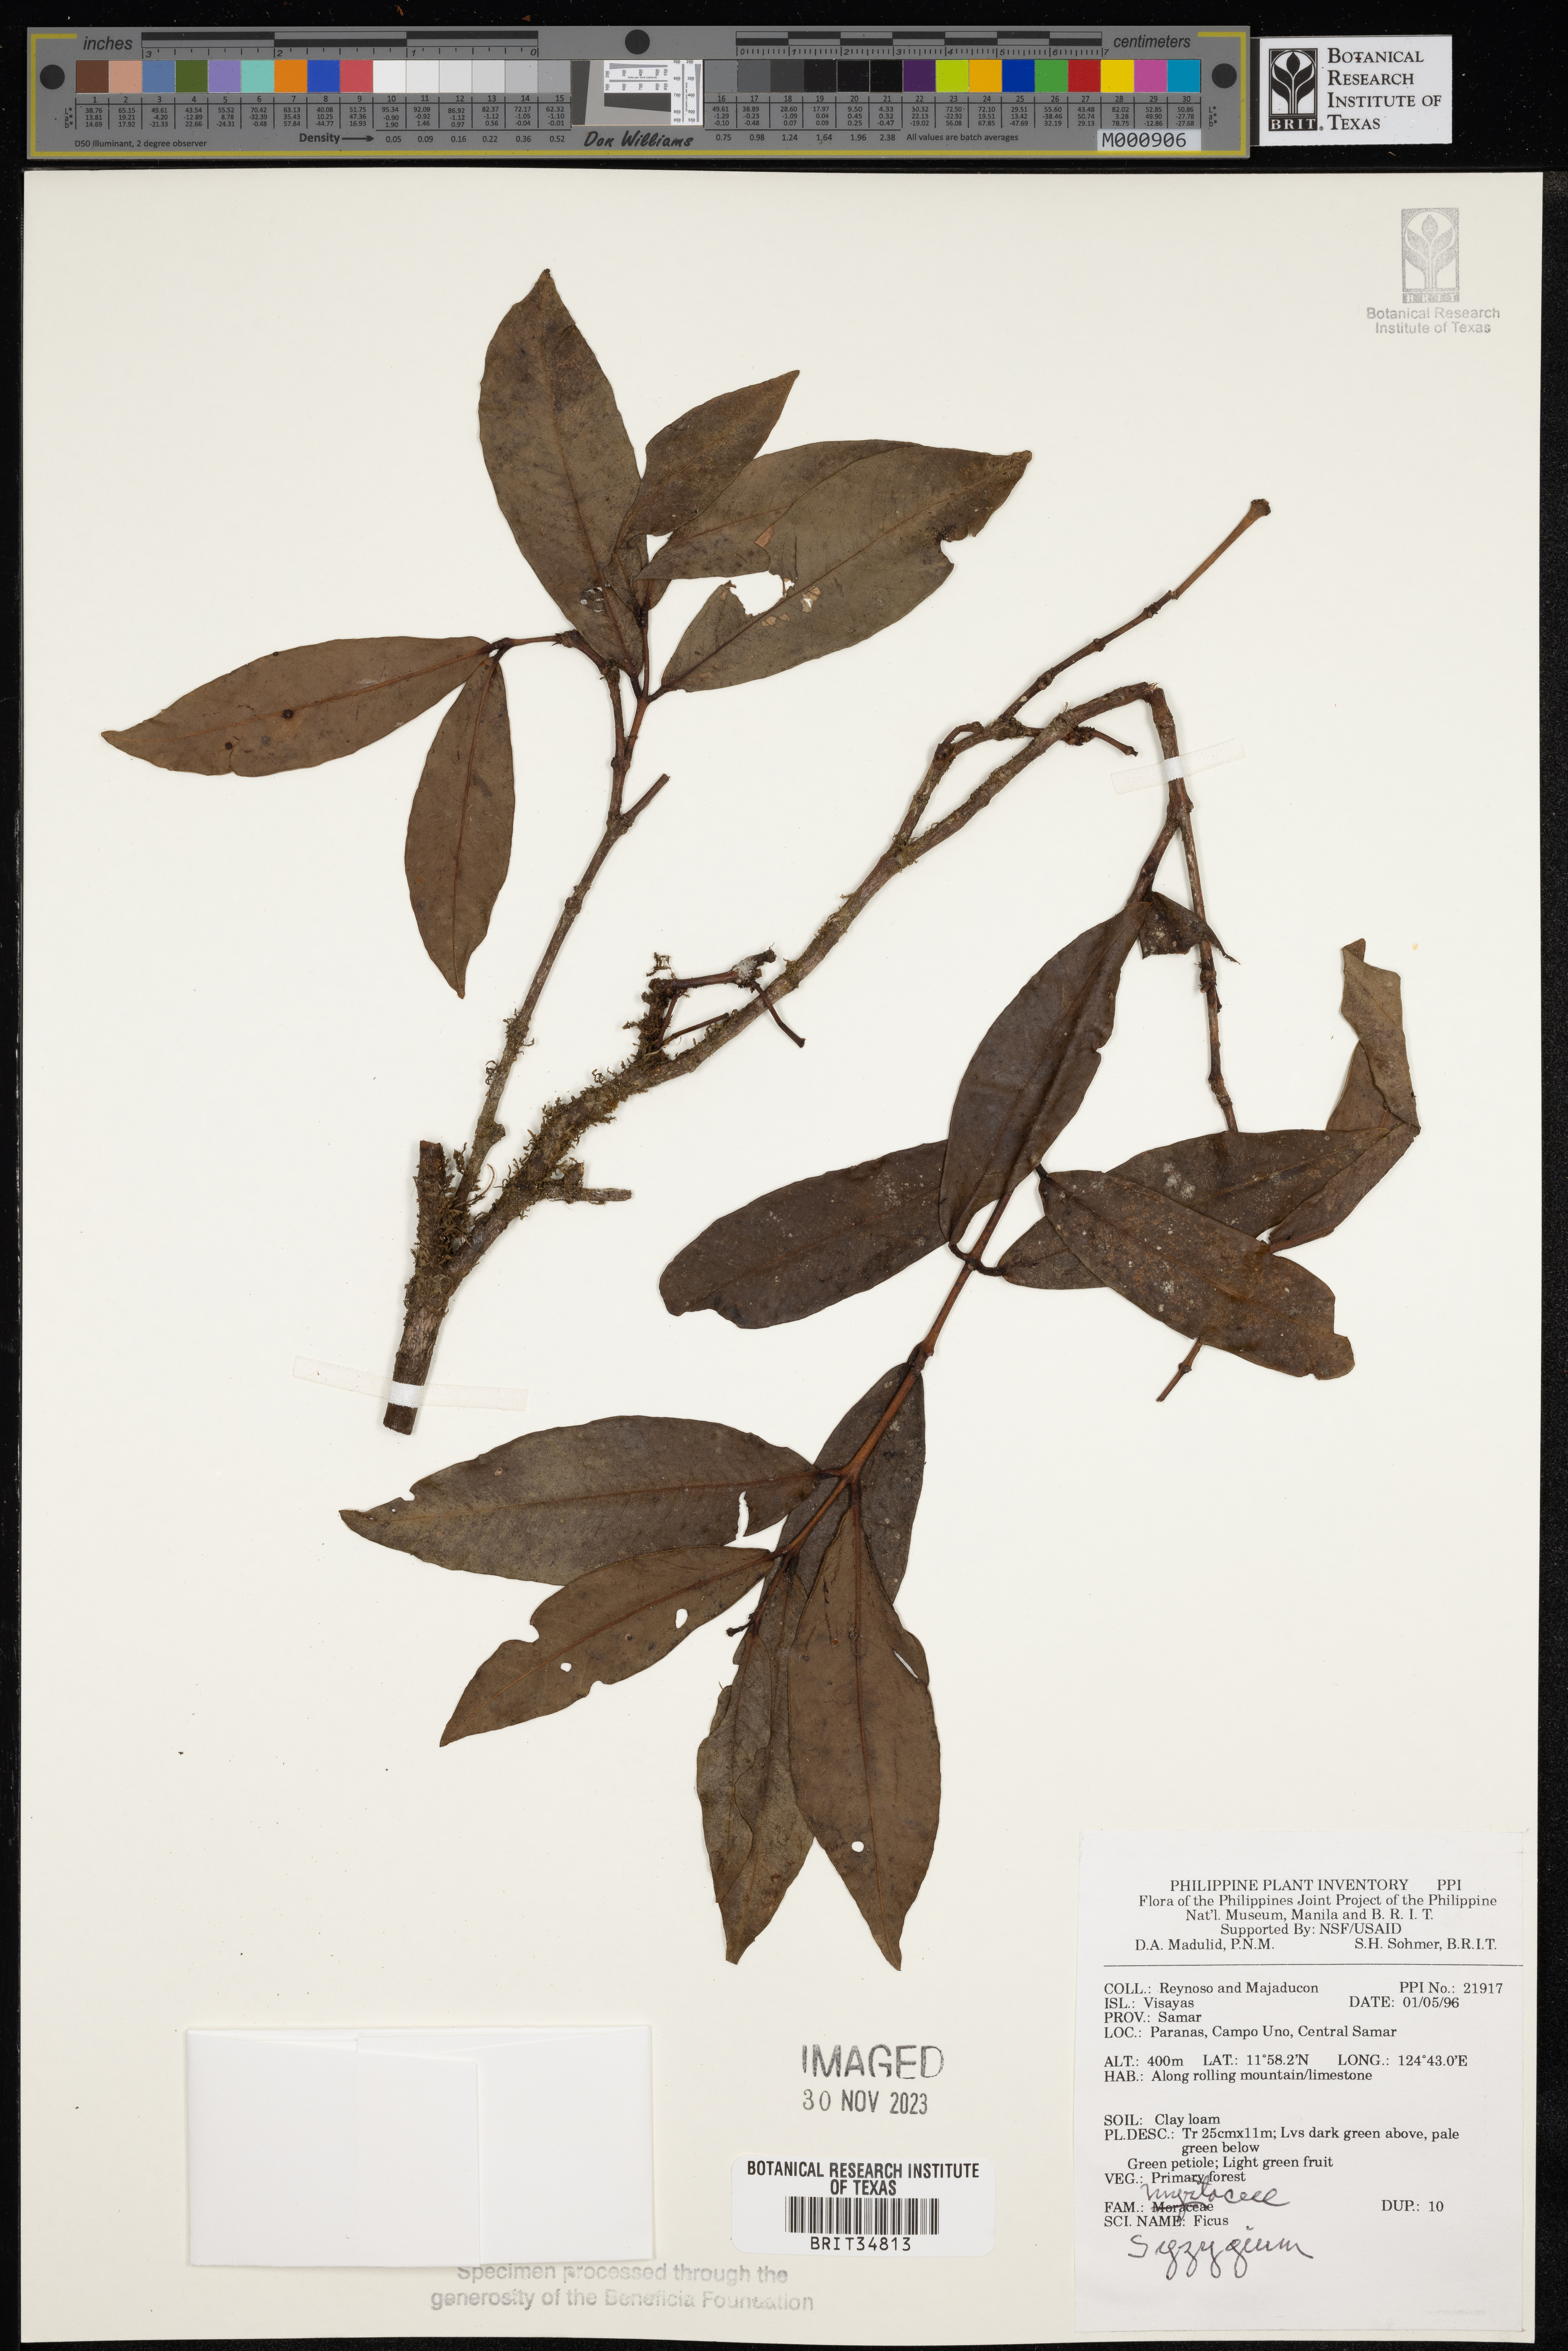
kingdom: Plantae
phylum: Tracheophyta
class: Magnoliopsida
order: Myrtales
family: Myrtaceae
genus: Syzygium
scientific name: Syzygium
